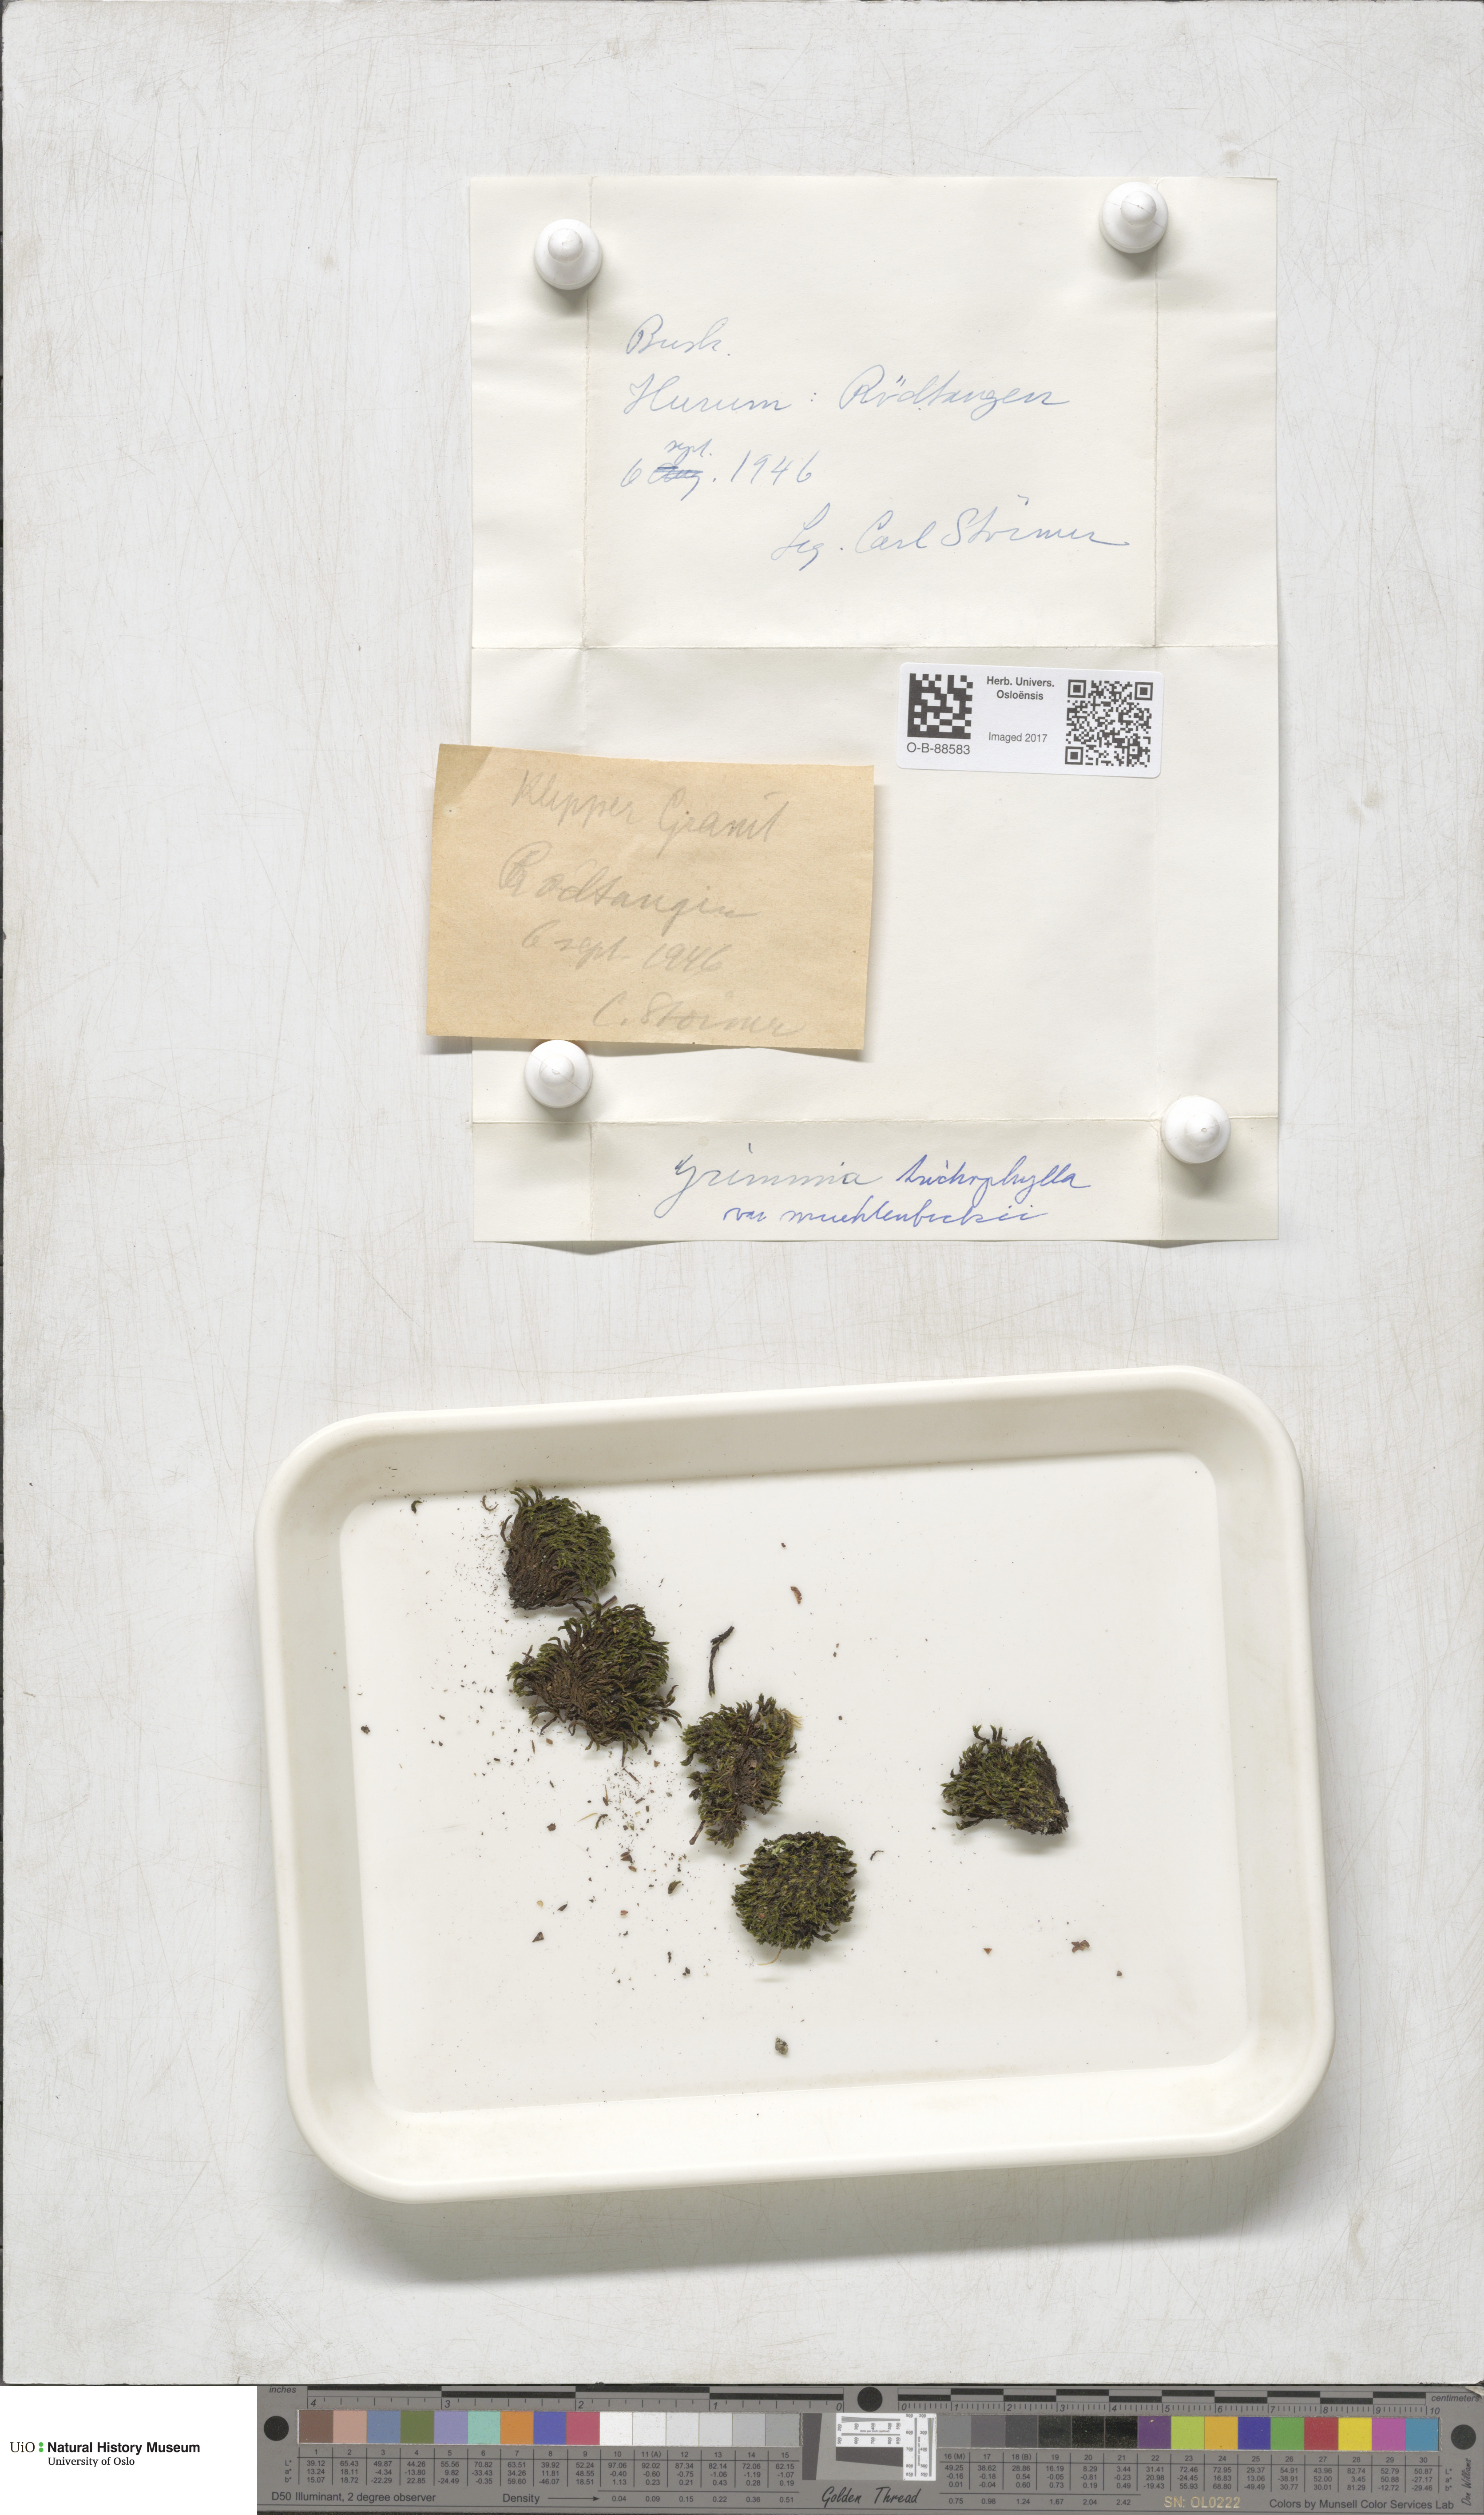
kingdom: Plantae
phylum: Bryophyta
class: Bryopsida
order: Grimmiales
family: Grimmiaceae
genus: Grimmia
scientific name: Grimmia muehlenbeckii
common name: Muehlenbeck's grimmia
